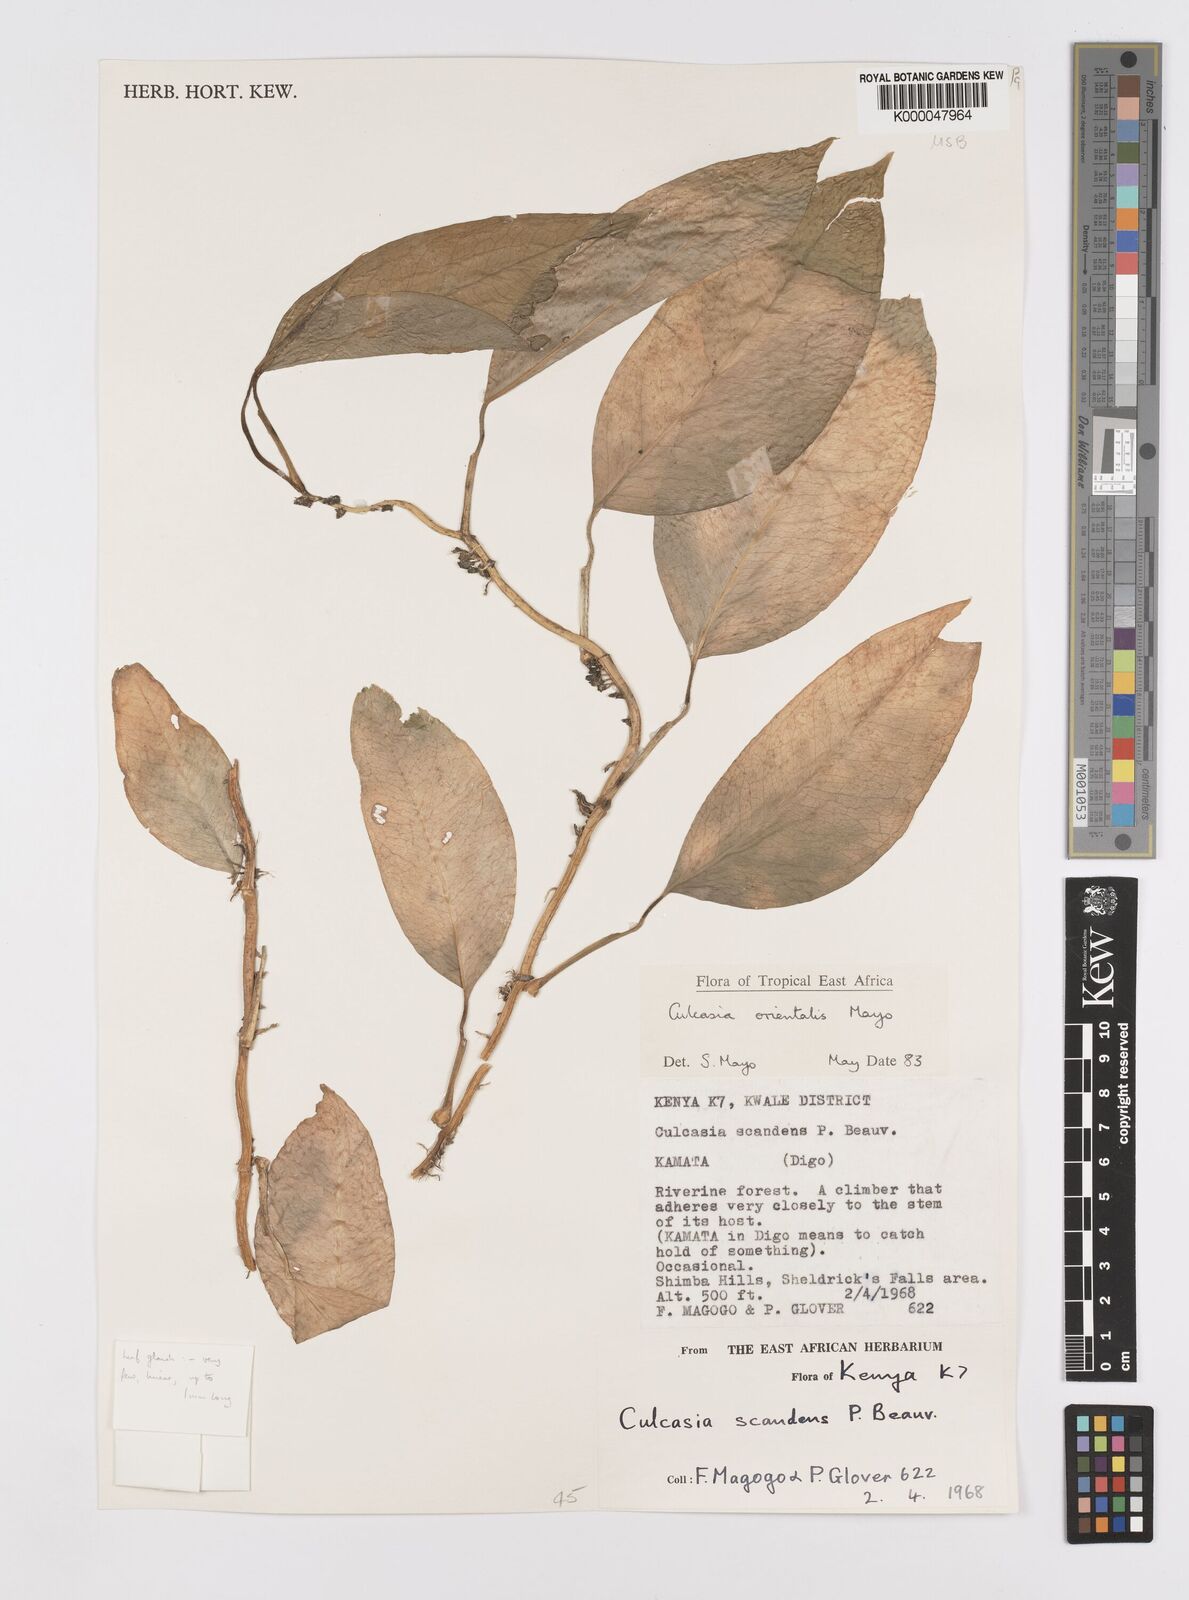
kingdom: Plantae
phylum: Tracheophyta
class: Liliopsida
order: Alismatales
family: Araceae
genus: Culcasia
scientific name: Culcasia orientalis
